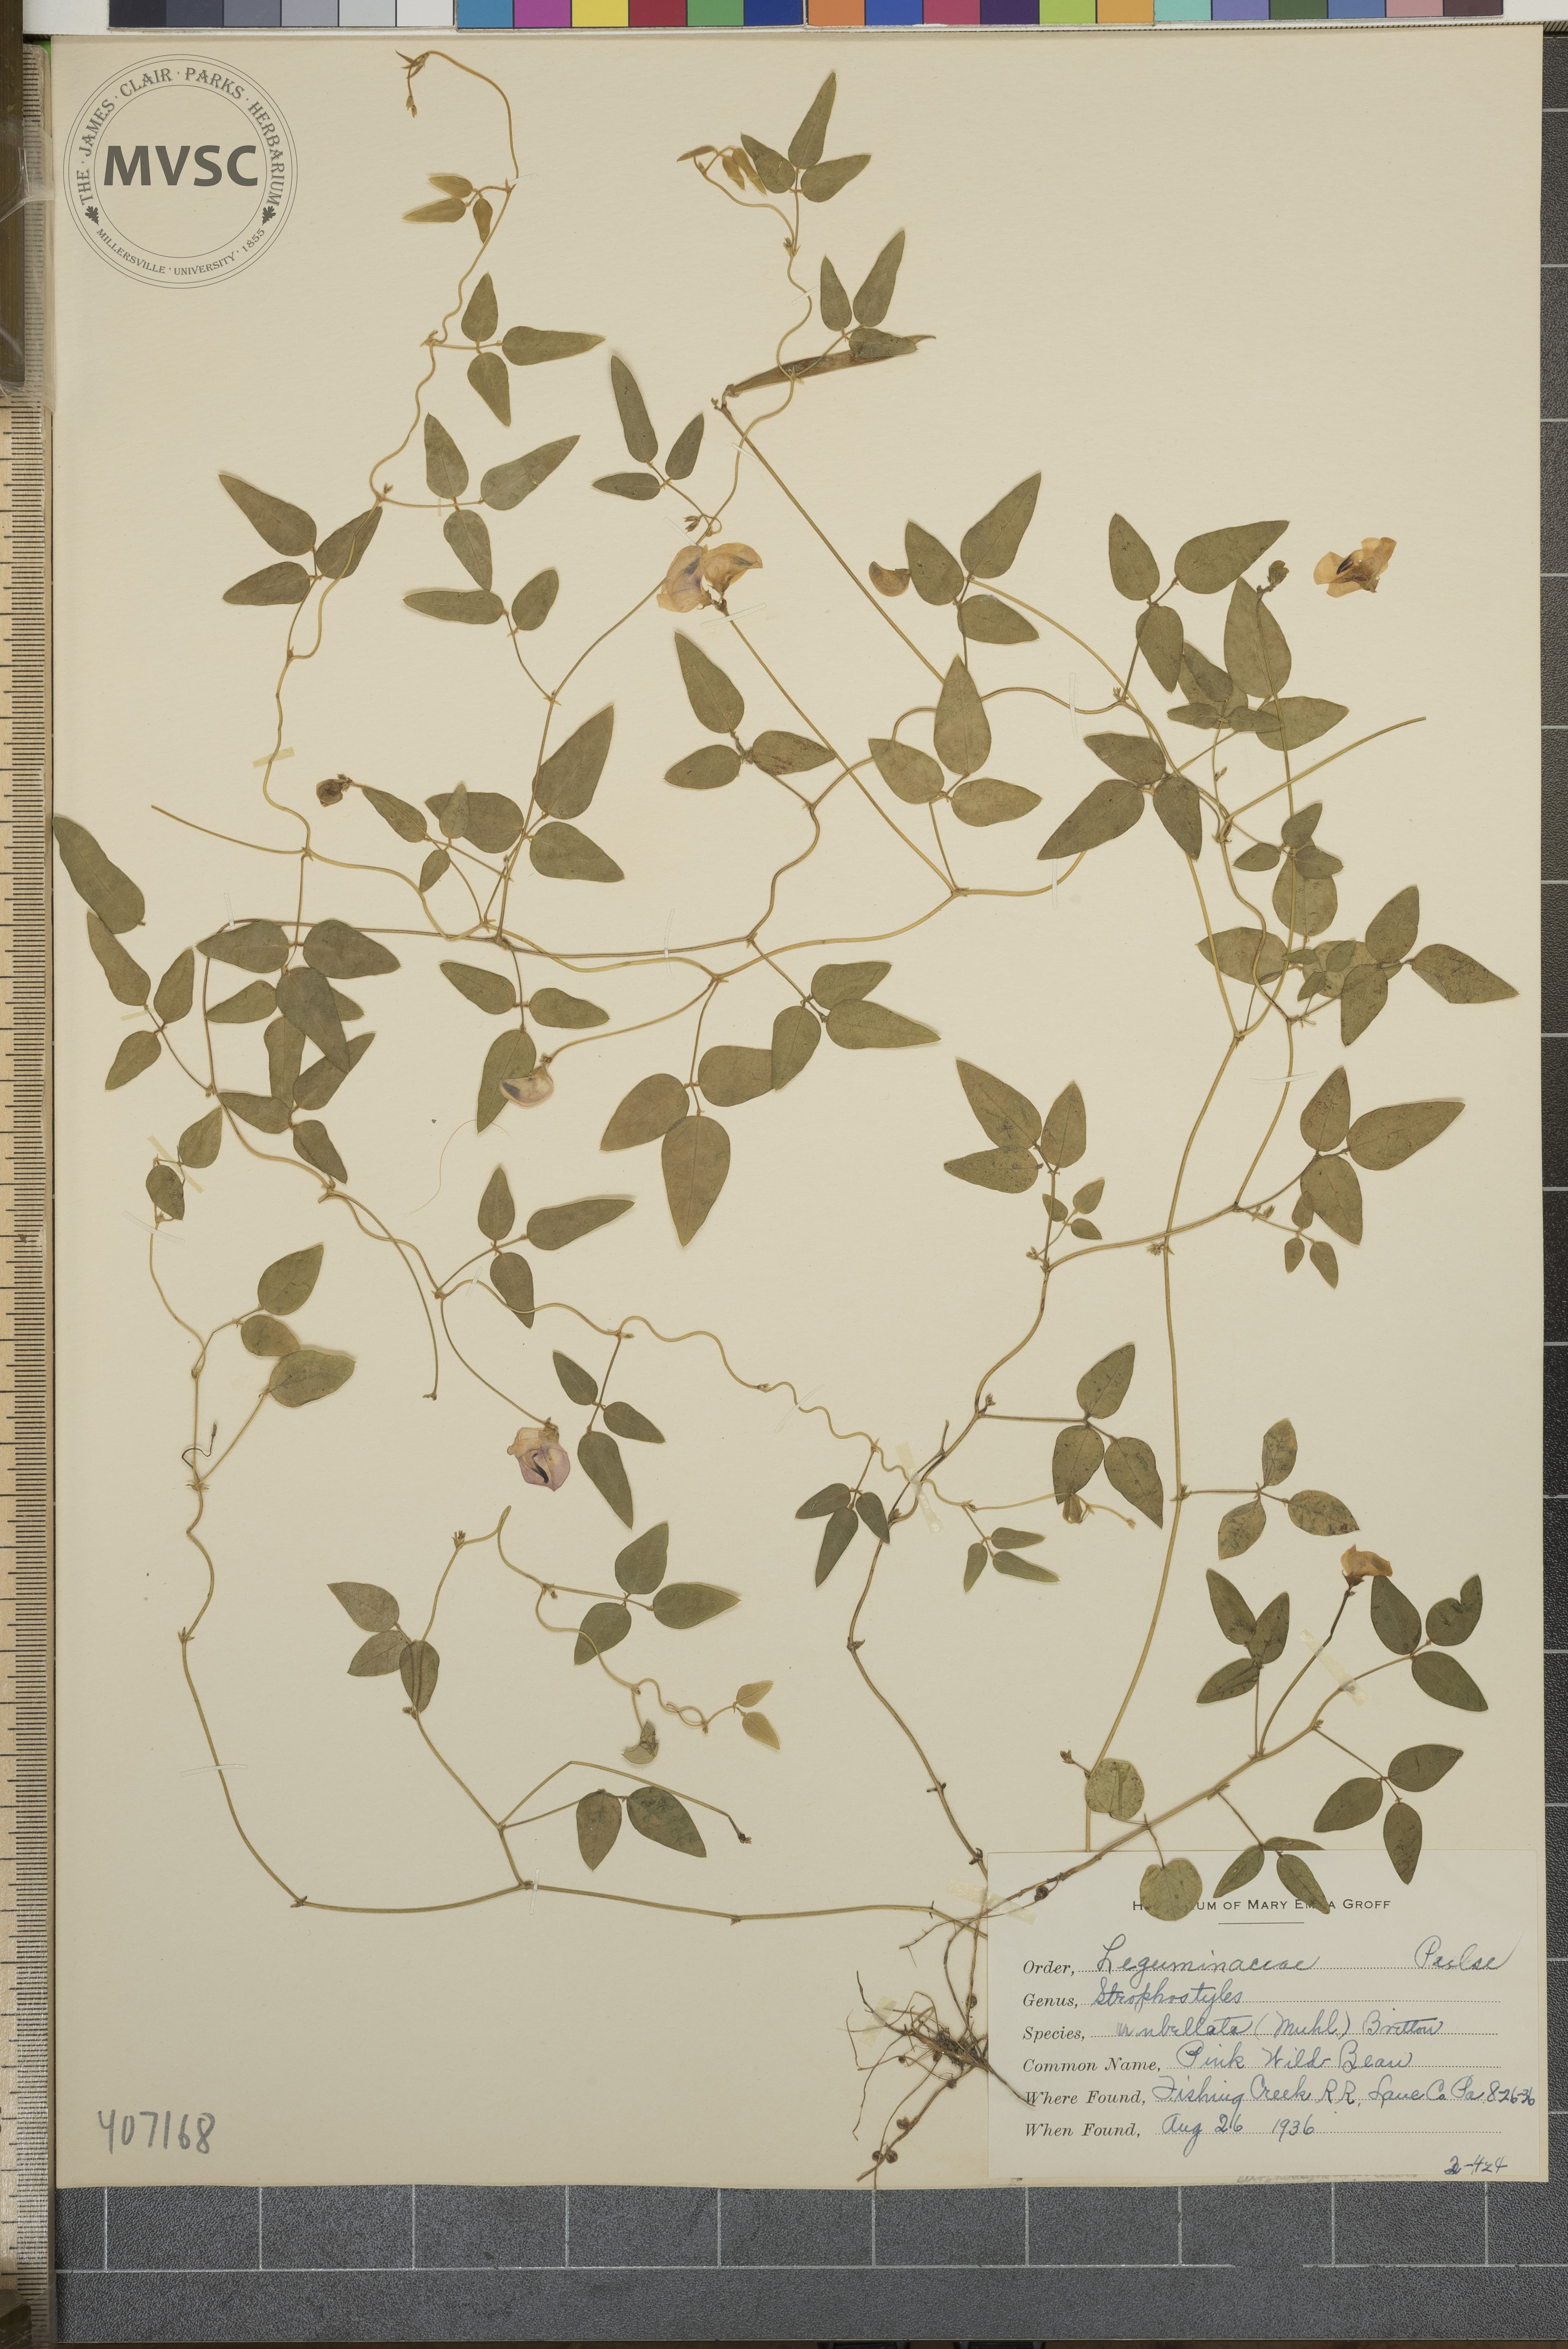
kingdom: Plantae
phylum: Tracheophyta
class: Magnoliopsida
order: Fabales
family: Fabaceae
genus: Strophostyles
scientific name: Strophostyles umbellata
